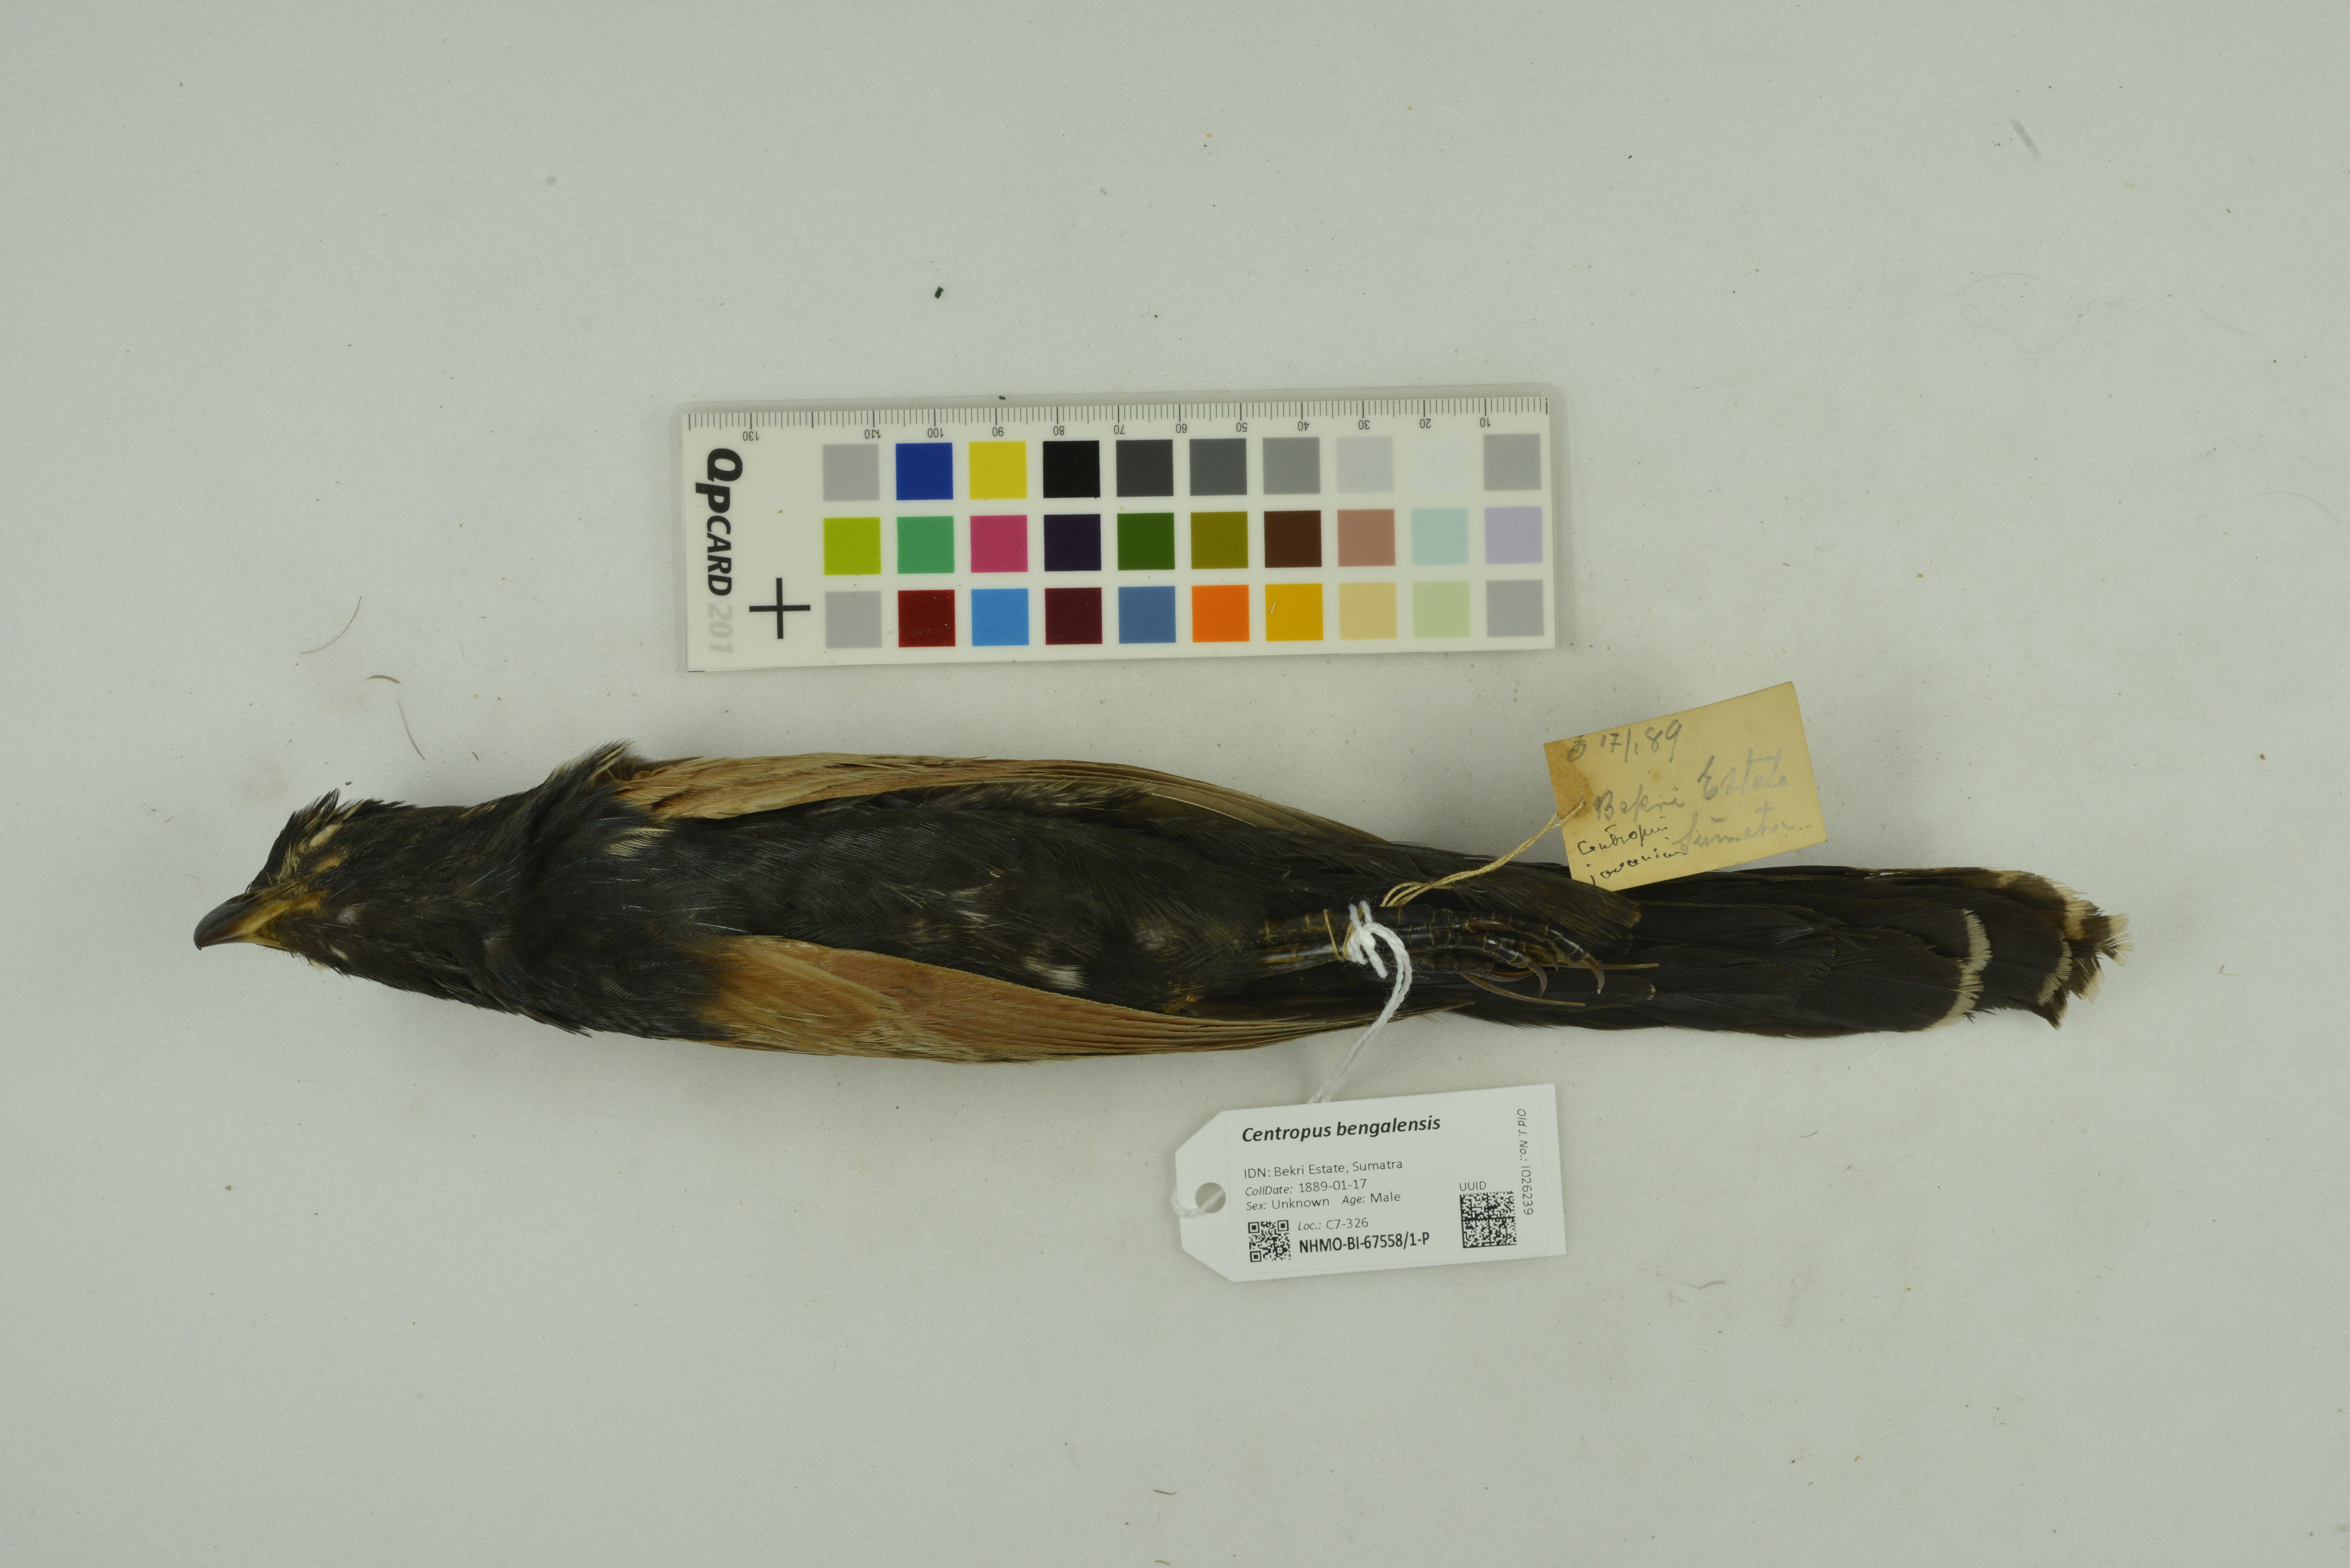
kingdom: Animalia
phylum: Chordata
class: Aves
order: Cuculiformes
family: Cuculidae
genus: Centropus
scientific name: Centropus bengalensis
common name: Lesser coucal
